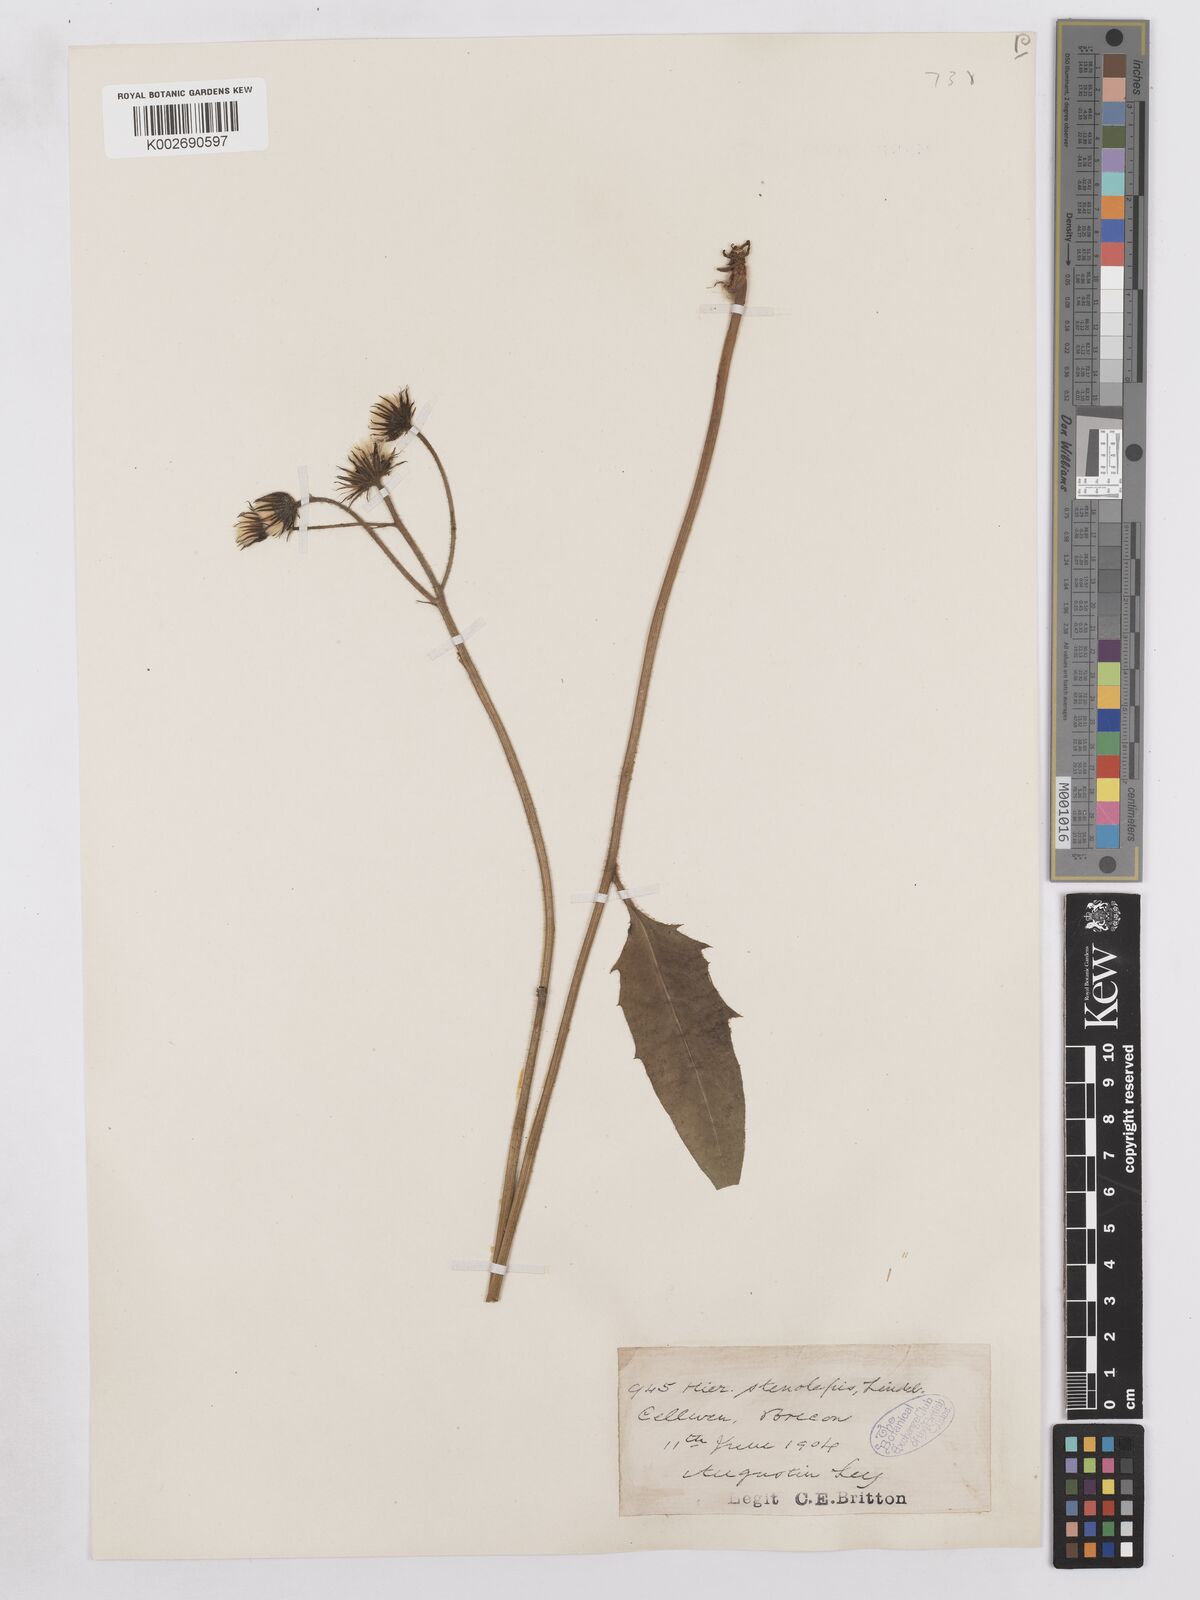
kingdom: Plantae
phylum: Tracheophyta
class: Magnoliopsida
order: Asterales
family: Asteraceae
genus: Hieracium
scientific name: Hieracium subbritannicum
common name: Limestone hawkweed
